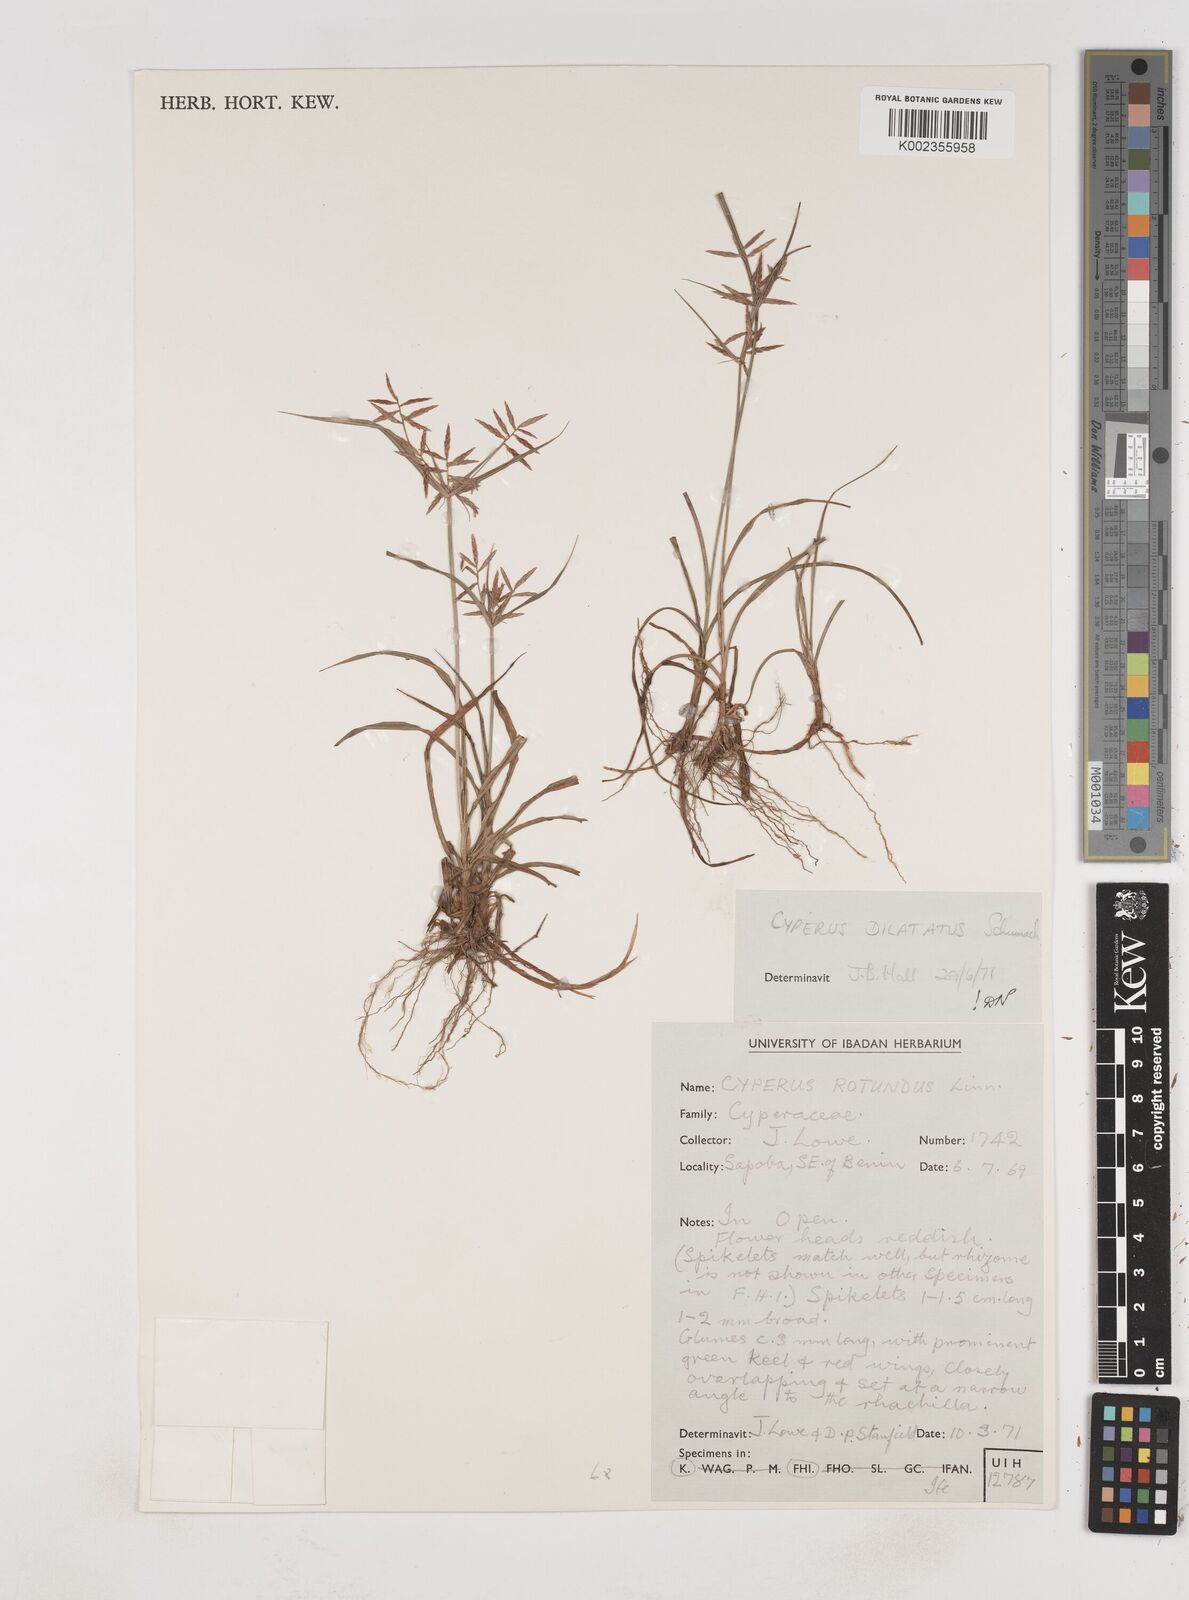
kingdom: Plantae
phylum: Tracheophyta
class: Liliopsida
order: Poales
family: Cyperaceae
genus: Cyperus
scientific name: Cyperus dilatatus
